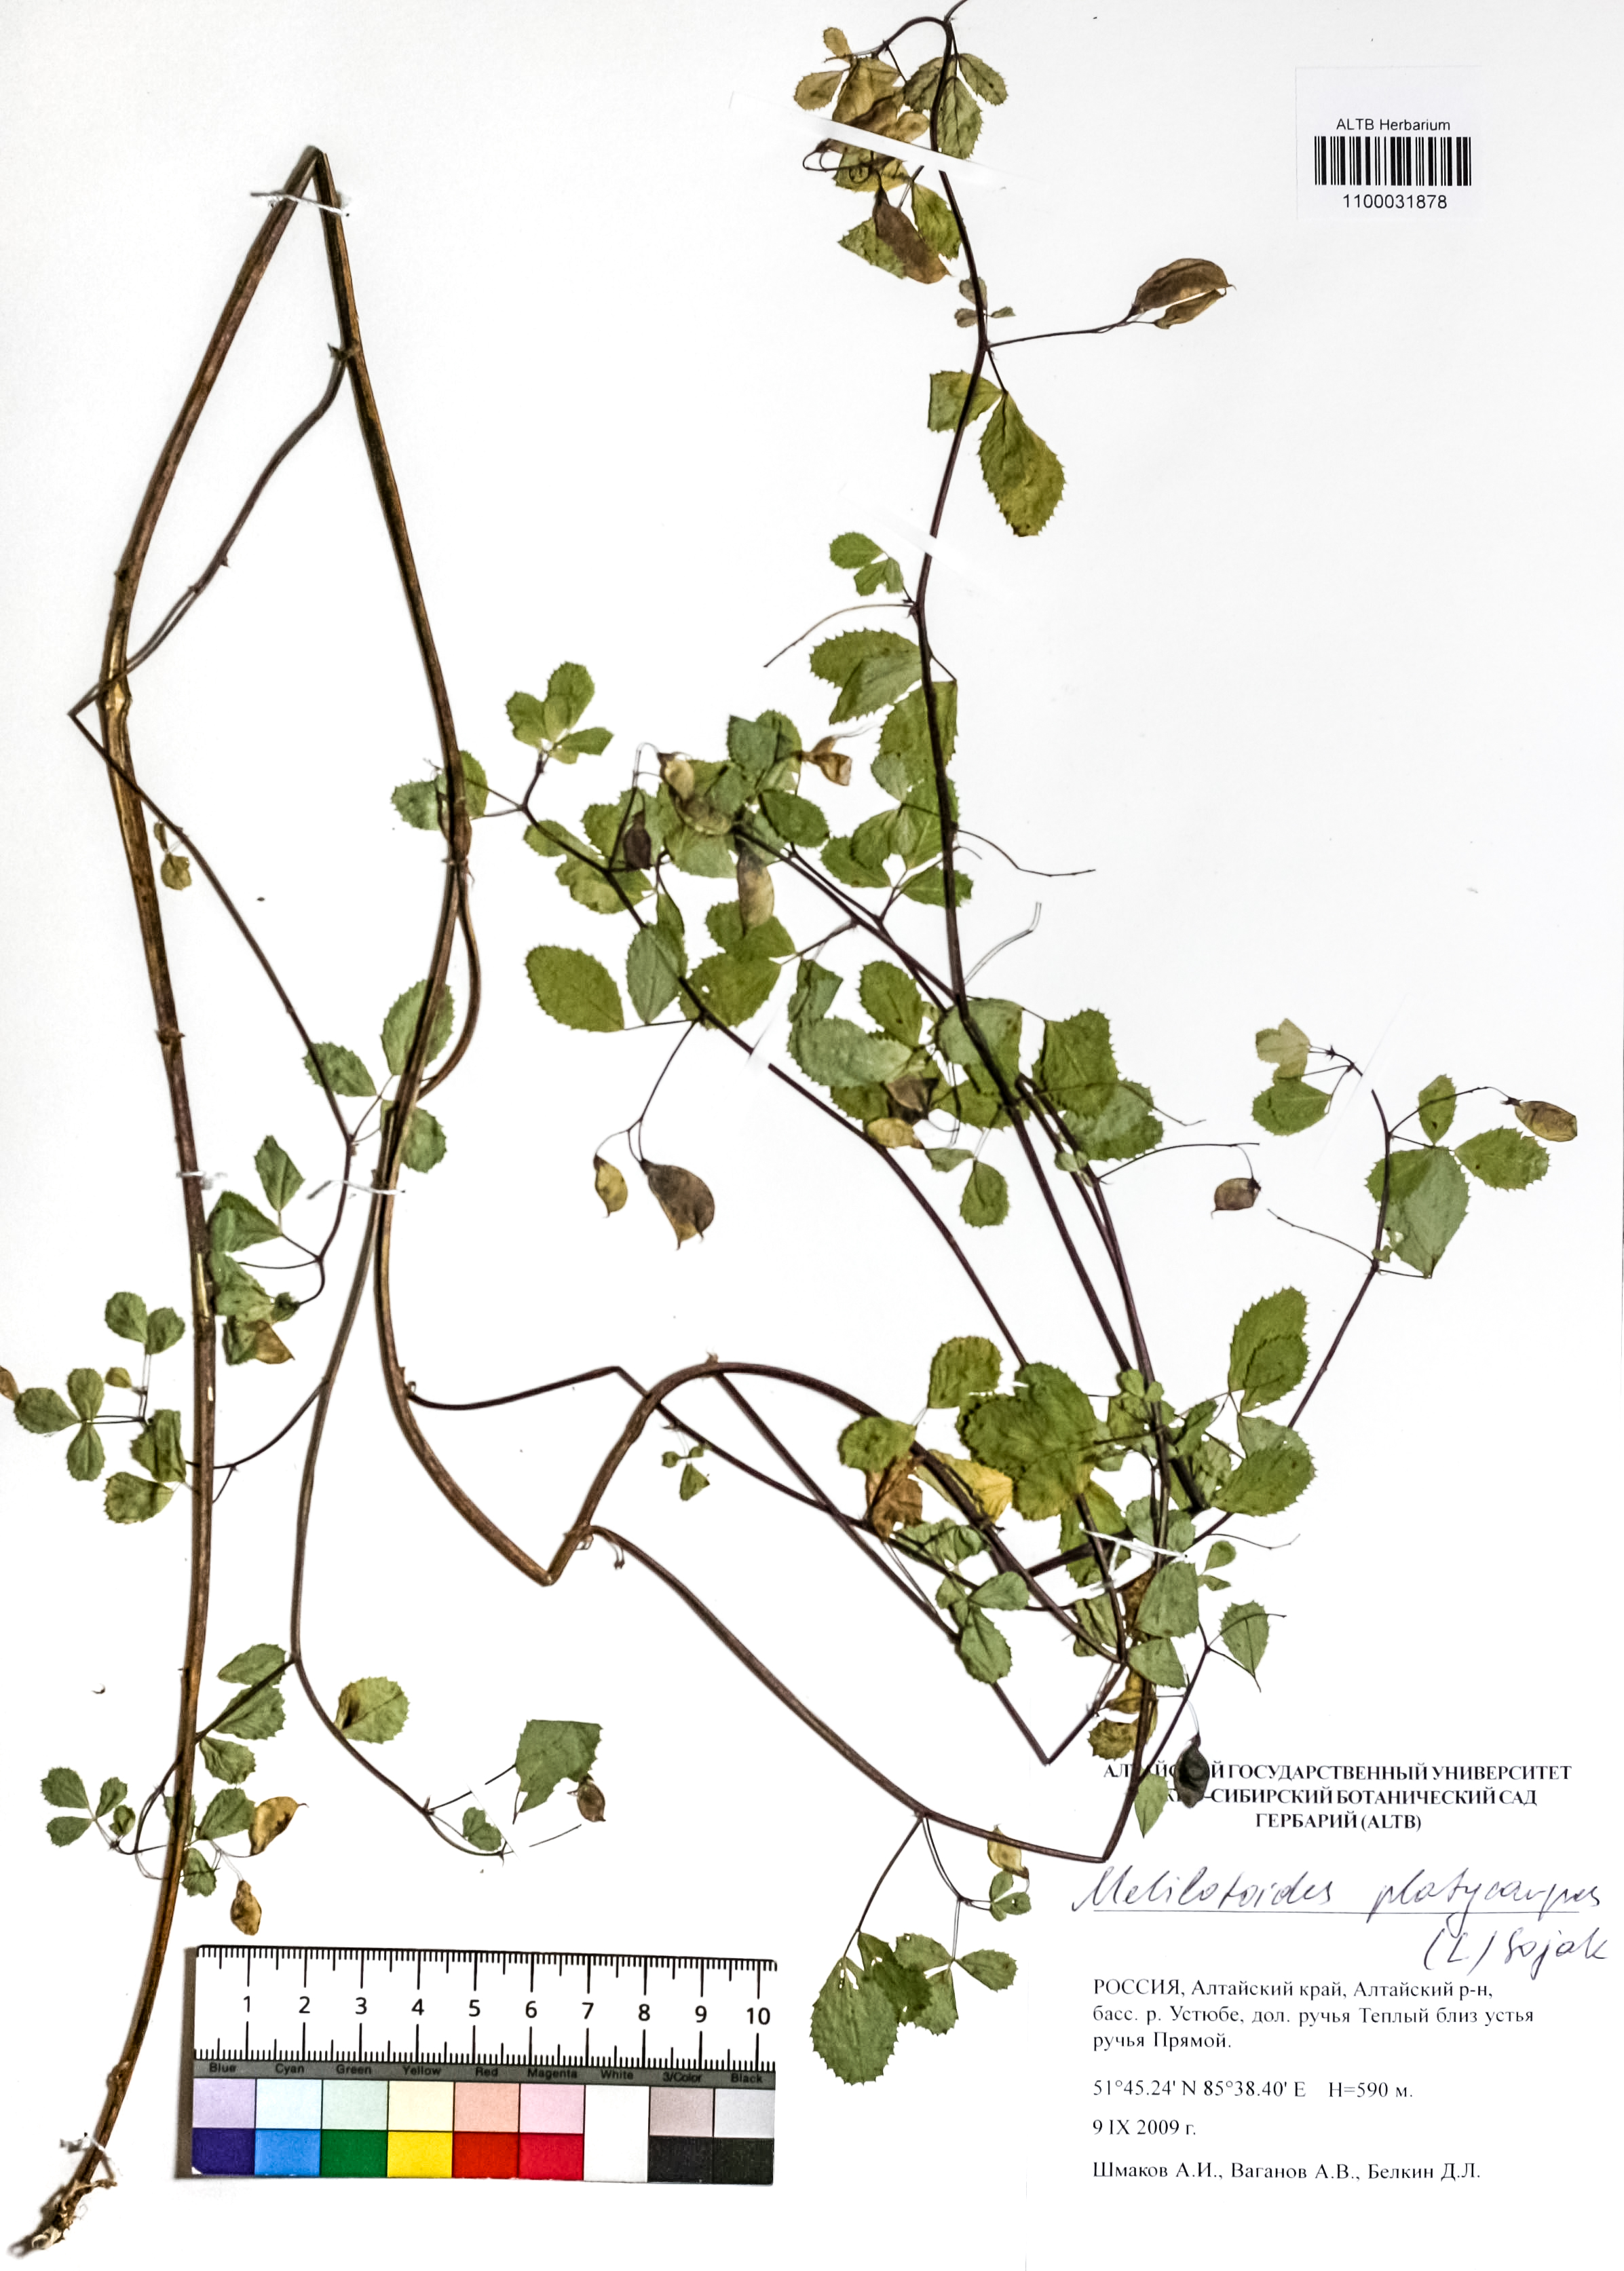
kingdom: Plantae
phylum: Tracheophyta
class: Magnoliopsida
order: Fabales
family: Fabaceae
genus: Medicago
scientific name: Medicago platycarpos
